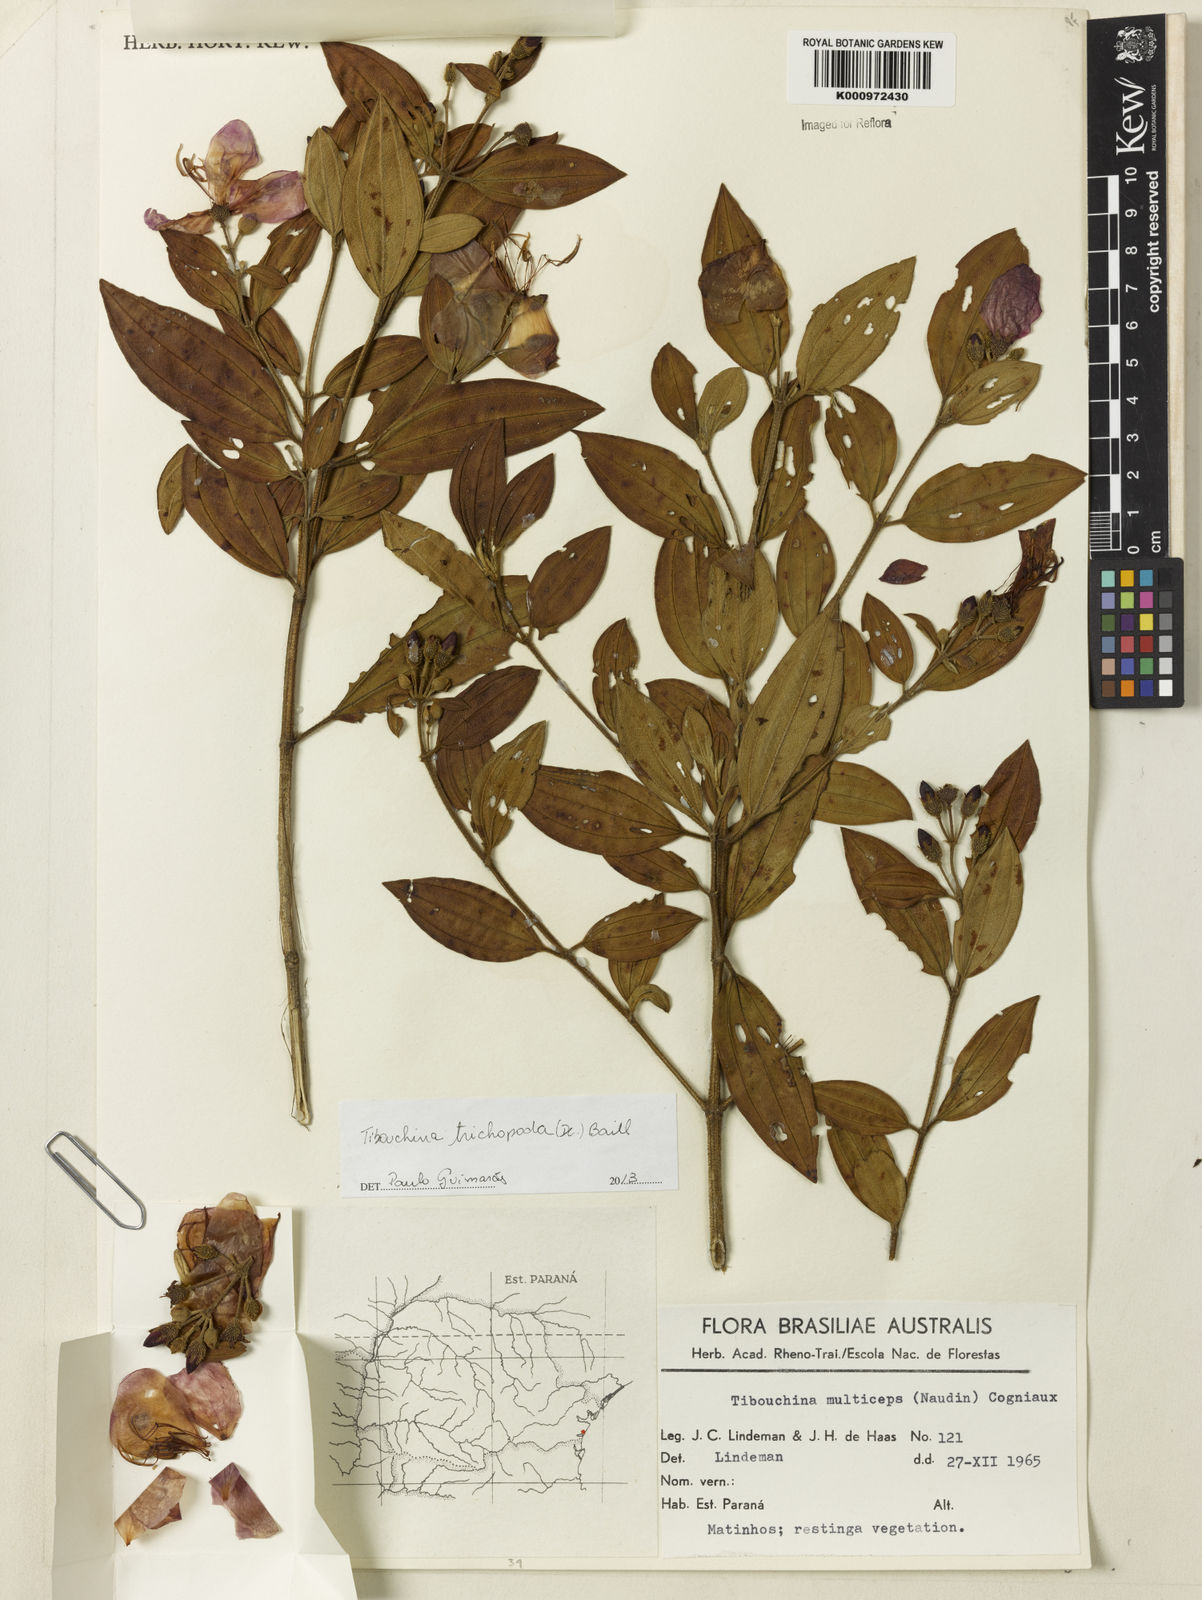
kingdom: Plantae
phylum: Tracheophyta
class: Magnoliopsida
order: Myrtales
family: Melastomataceae
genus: Pleroma
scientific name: Pleroma trichopodum
